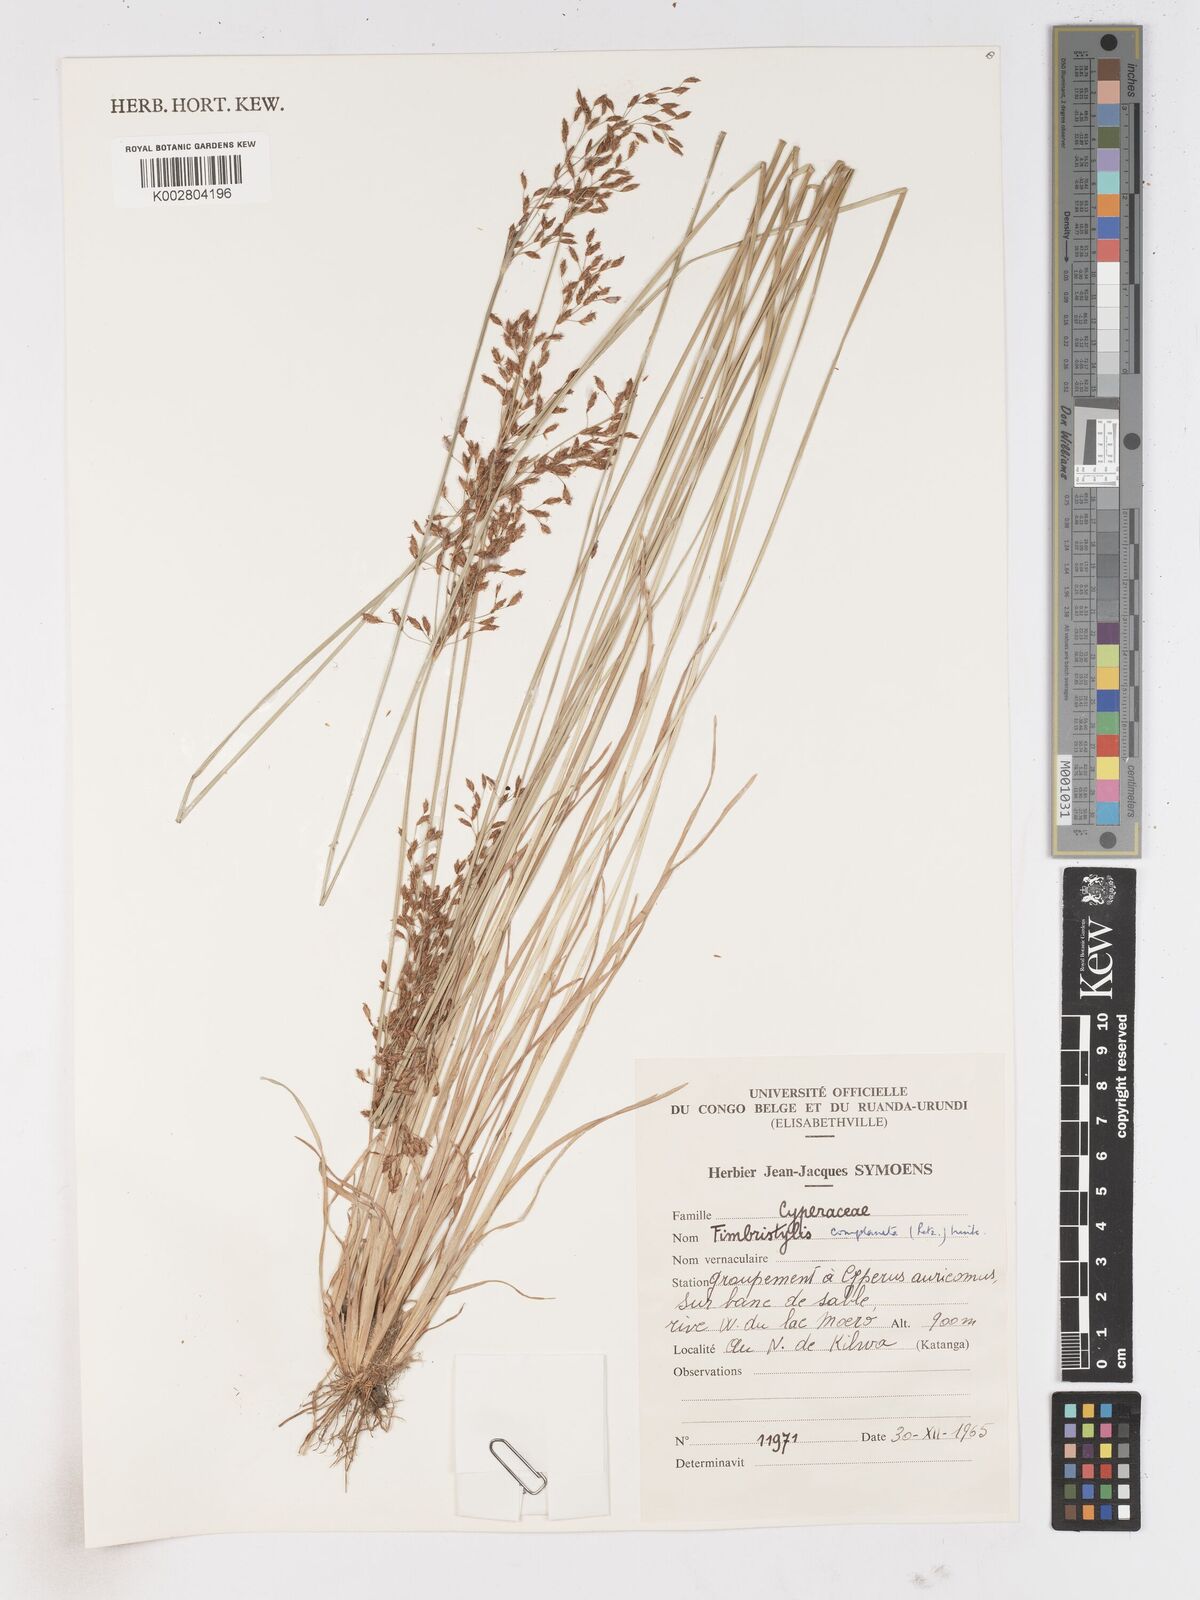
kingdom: Plantae
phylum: Tracheophyta
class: Liliopsida
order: Poales
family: Cyperaceae
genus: Fimbristylis
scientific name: Fimbristylis pilosa
